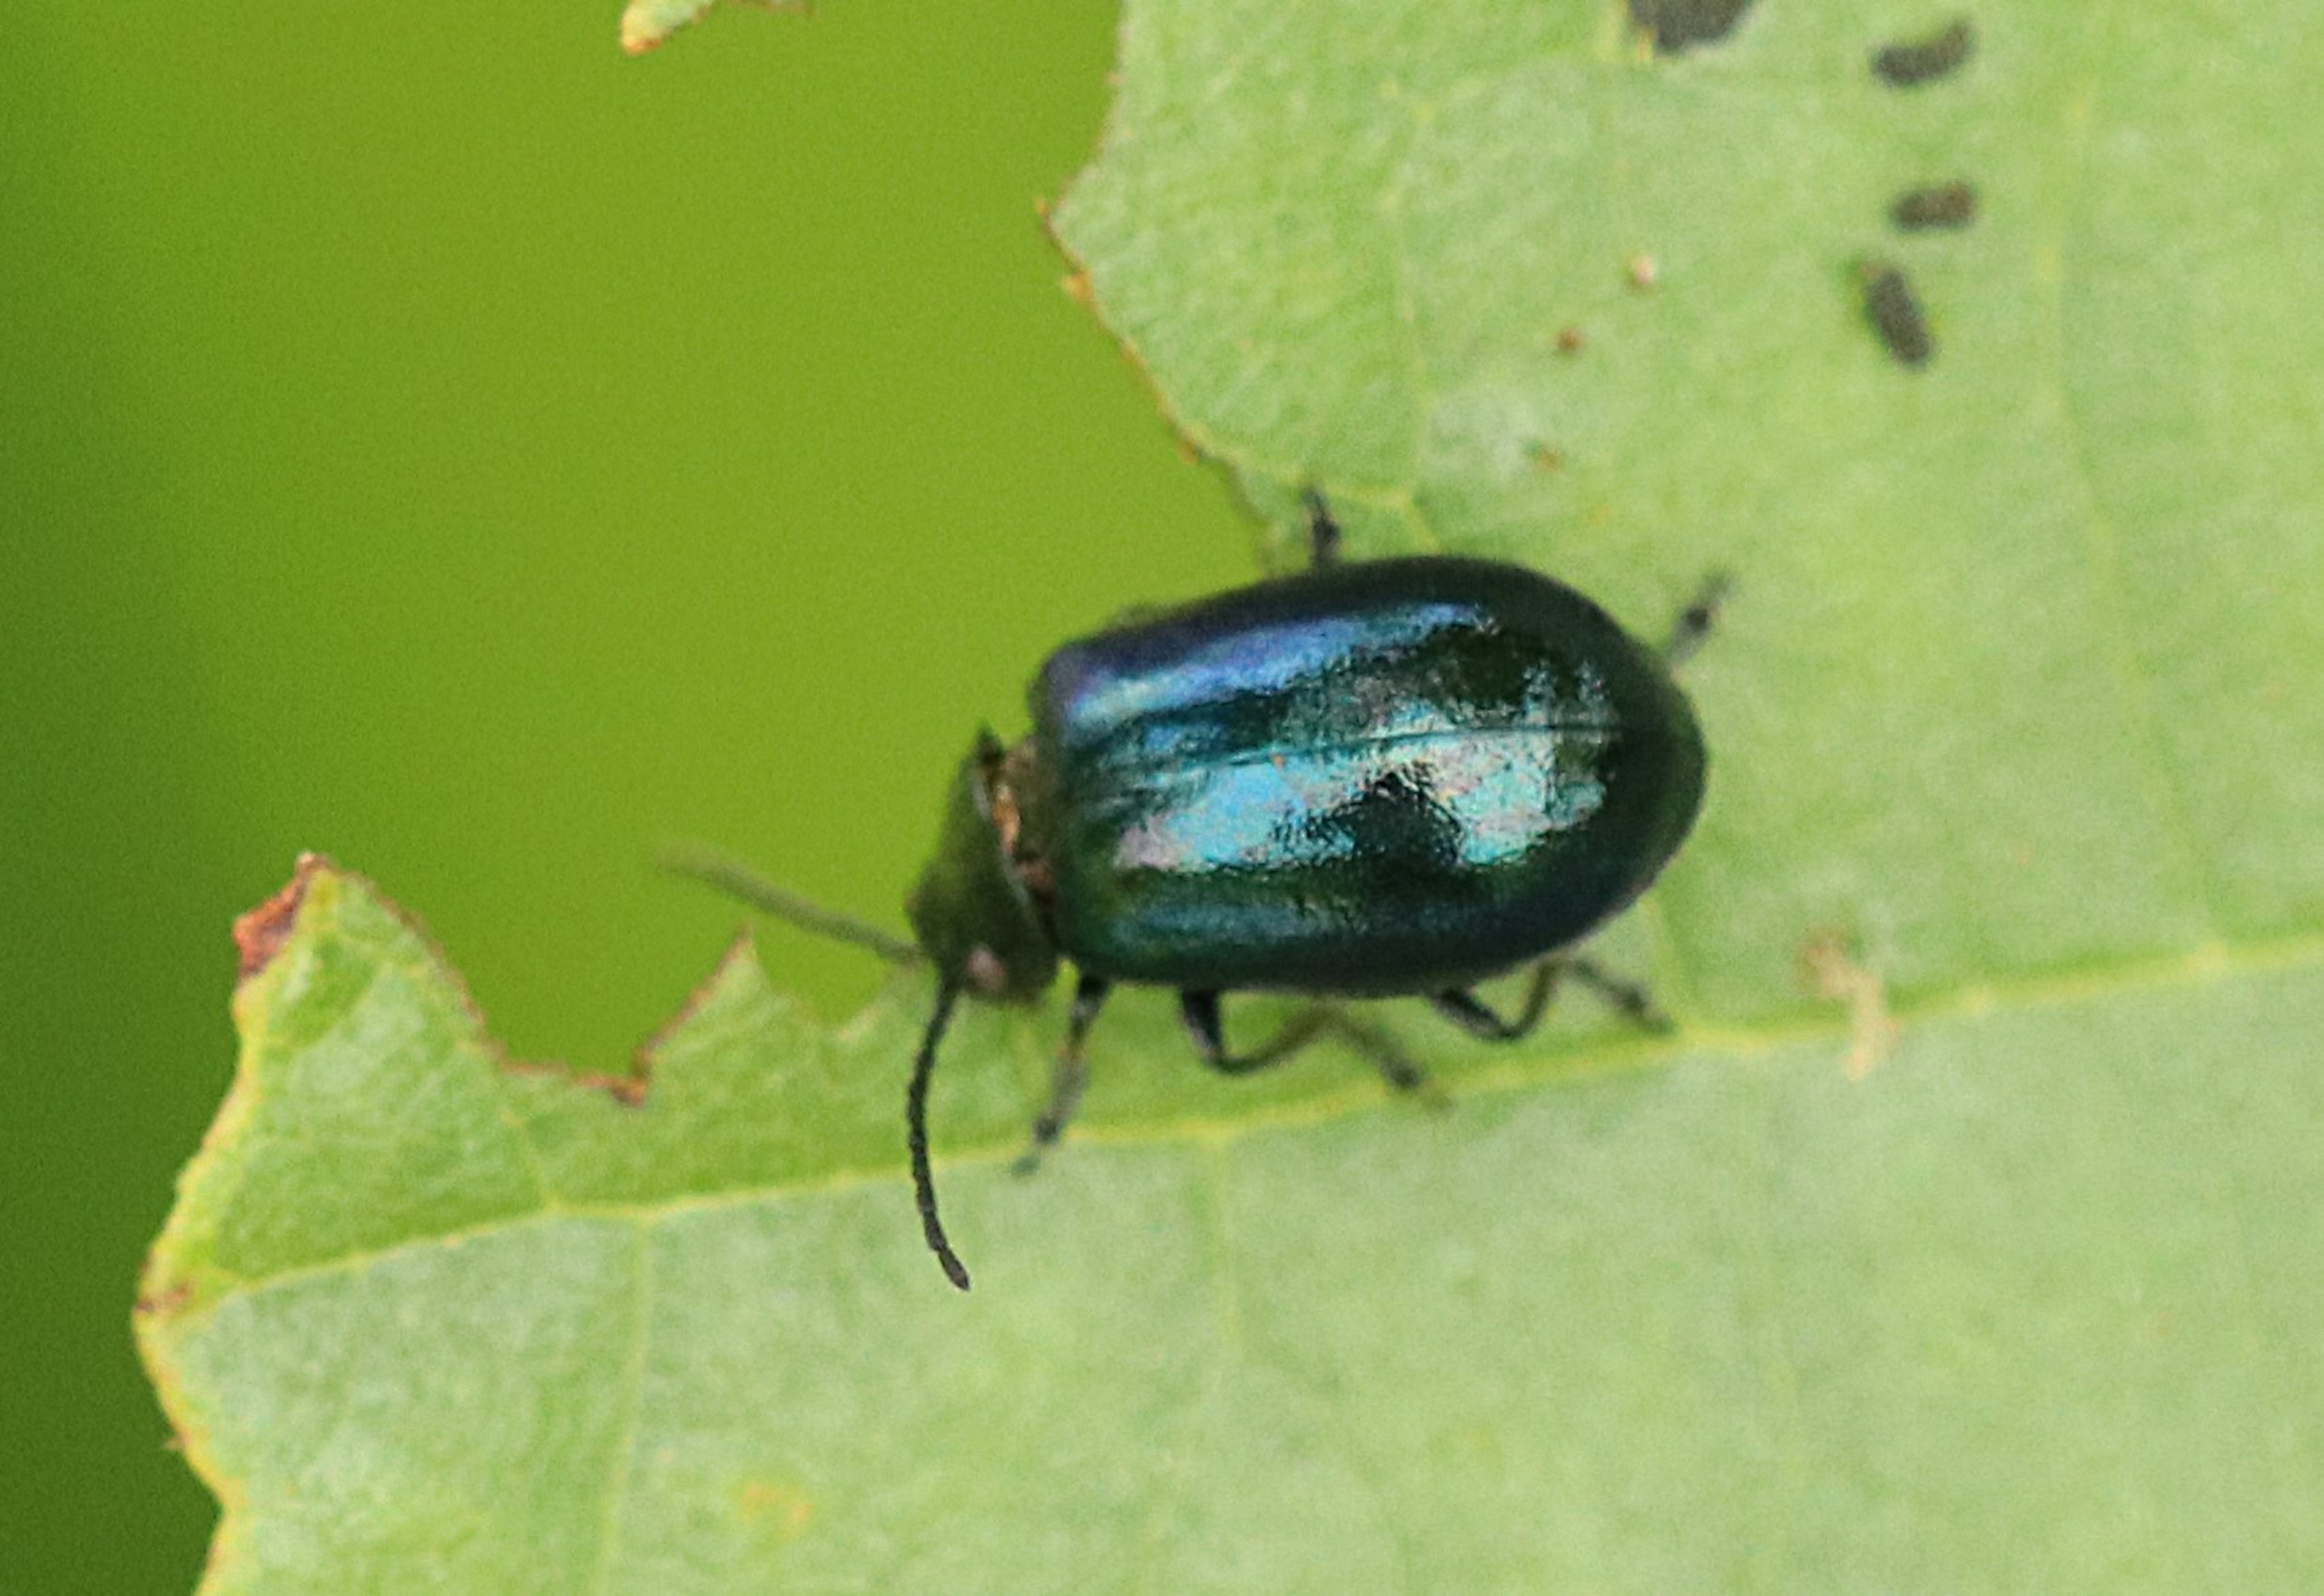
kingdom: Animalia
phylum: Arthropoda
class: Insecta
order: Coleoptera
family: Chrysomelidae
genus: Agelastica
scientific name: Agelastica alni
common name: Ellebladbille
